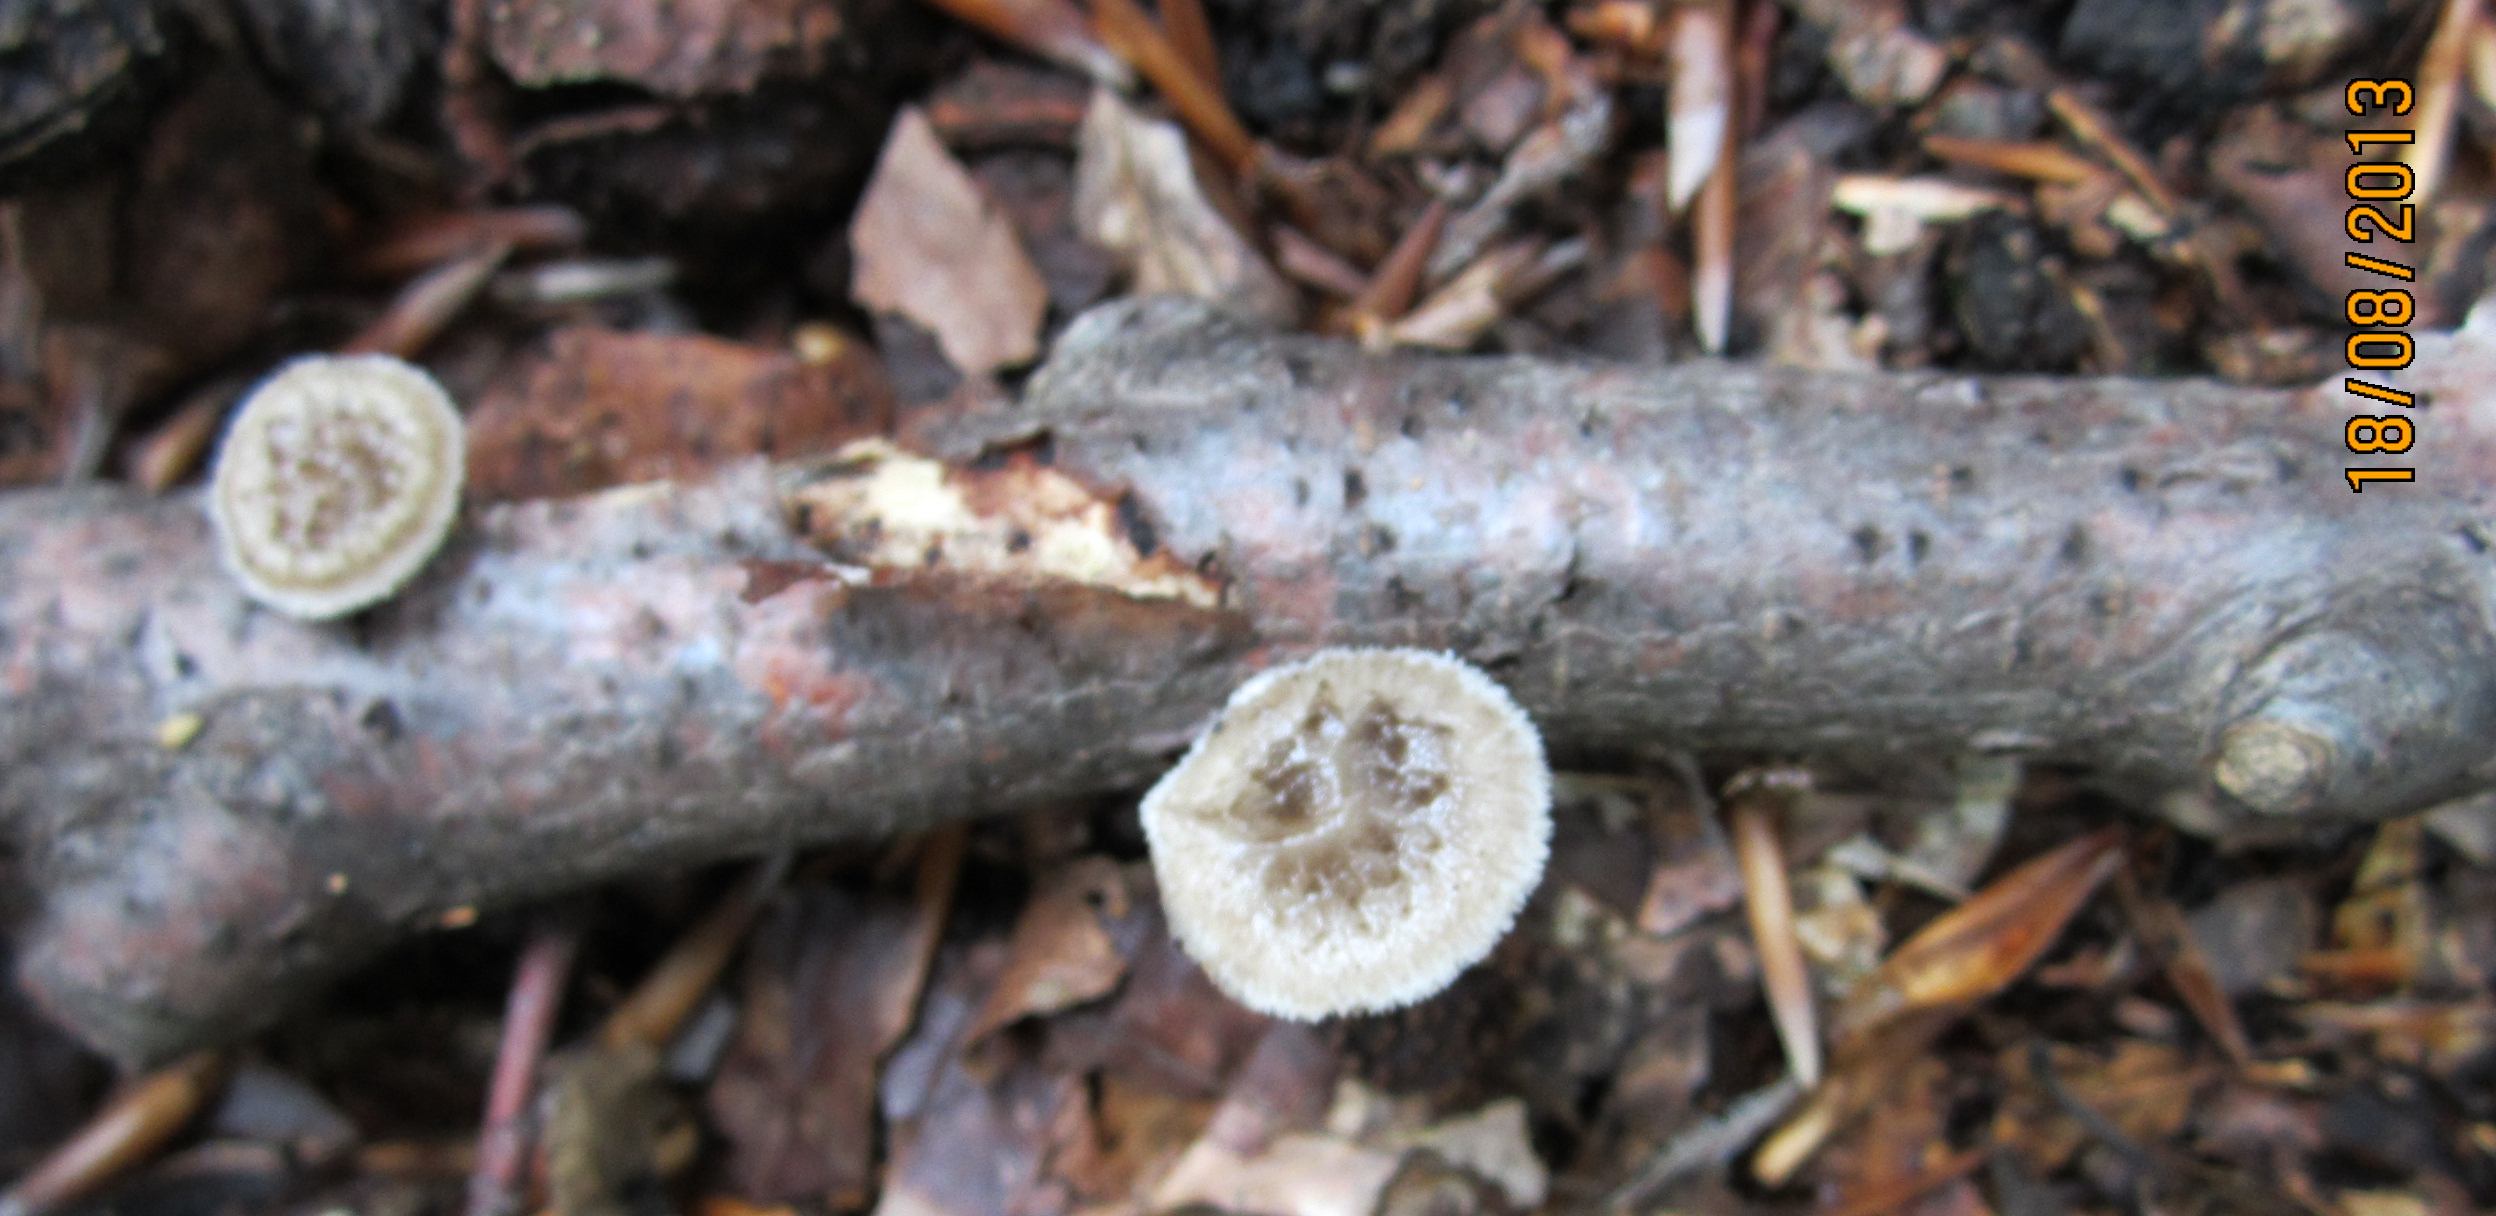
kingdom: Fungi
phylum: Basidiomycota
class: Agaricomycetes
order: Polyporales
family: Polyporaceae
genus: Polyporus
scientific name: Polyporus tuberaster
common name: knoldet stilkporesvamp
